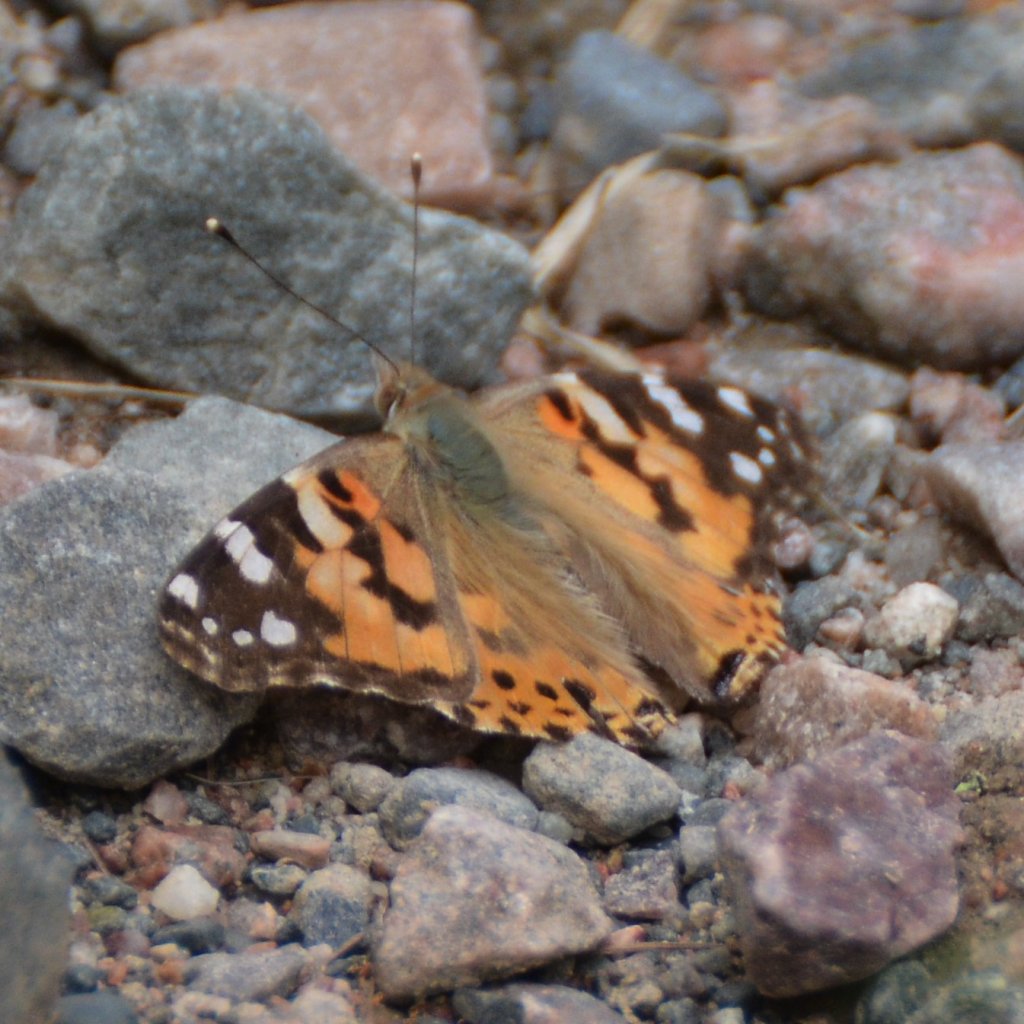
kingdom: Animalia
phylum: Arthropoda
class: Insecta
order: Lepidoptera
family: Nymphalidae
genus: Vanessa
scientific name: Vanessa cardui
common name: Painted Lady
